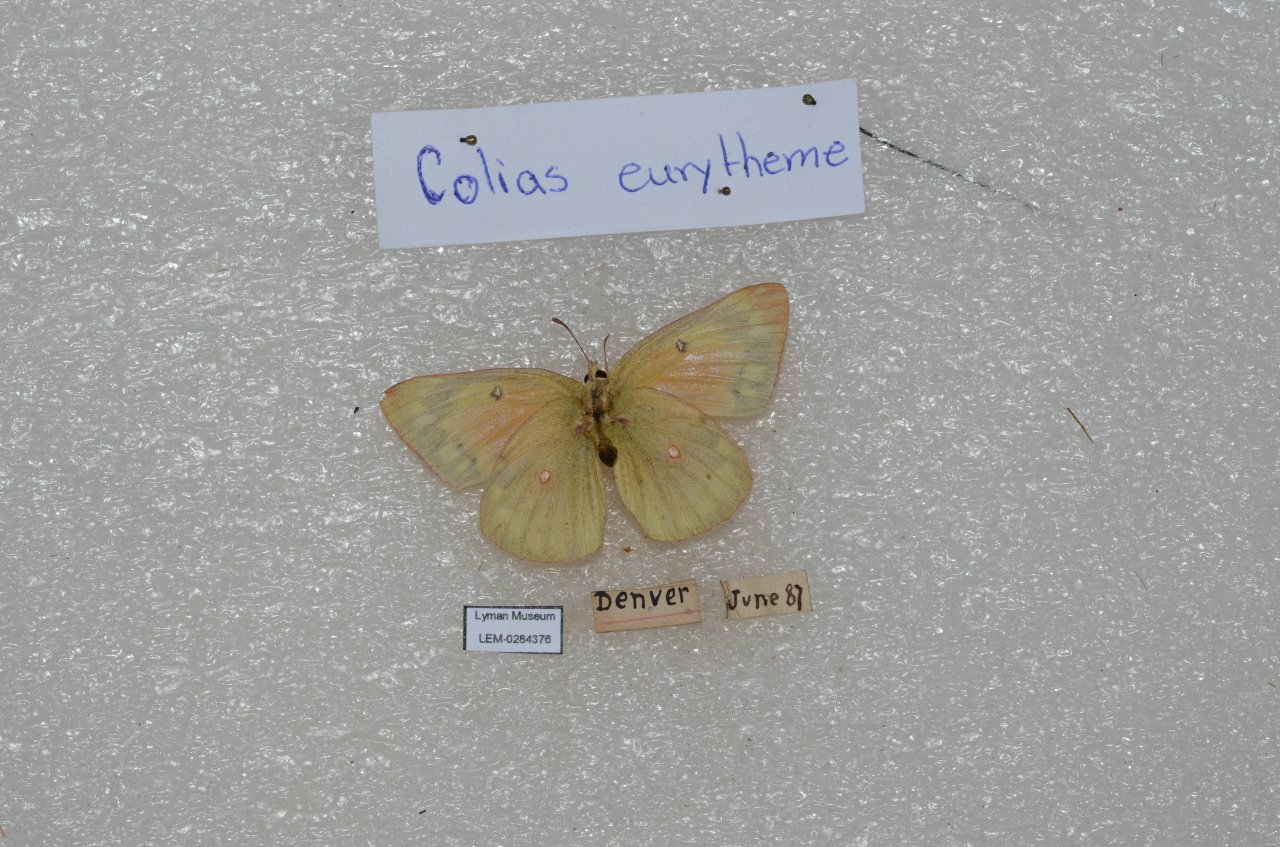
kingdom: Animalia
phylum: Arthropoda
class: Insecta
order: Lepidoptera
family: Pieridae
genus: Colias
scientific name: Colias eurytheme
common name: Orange Sulphur
